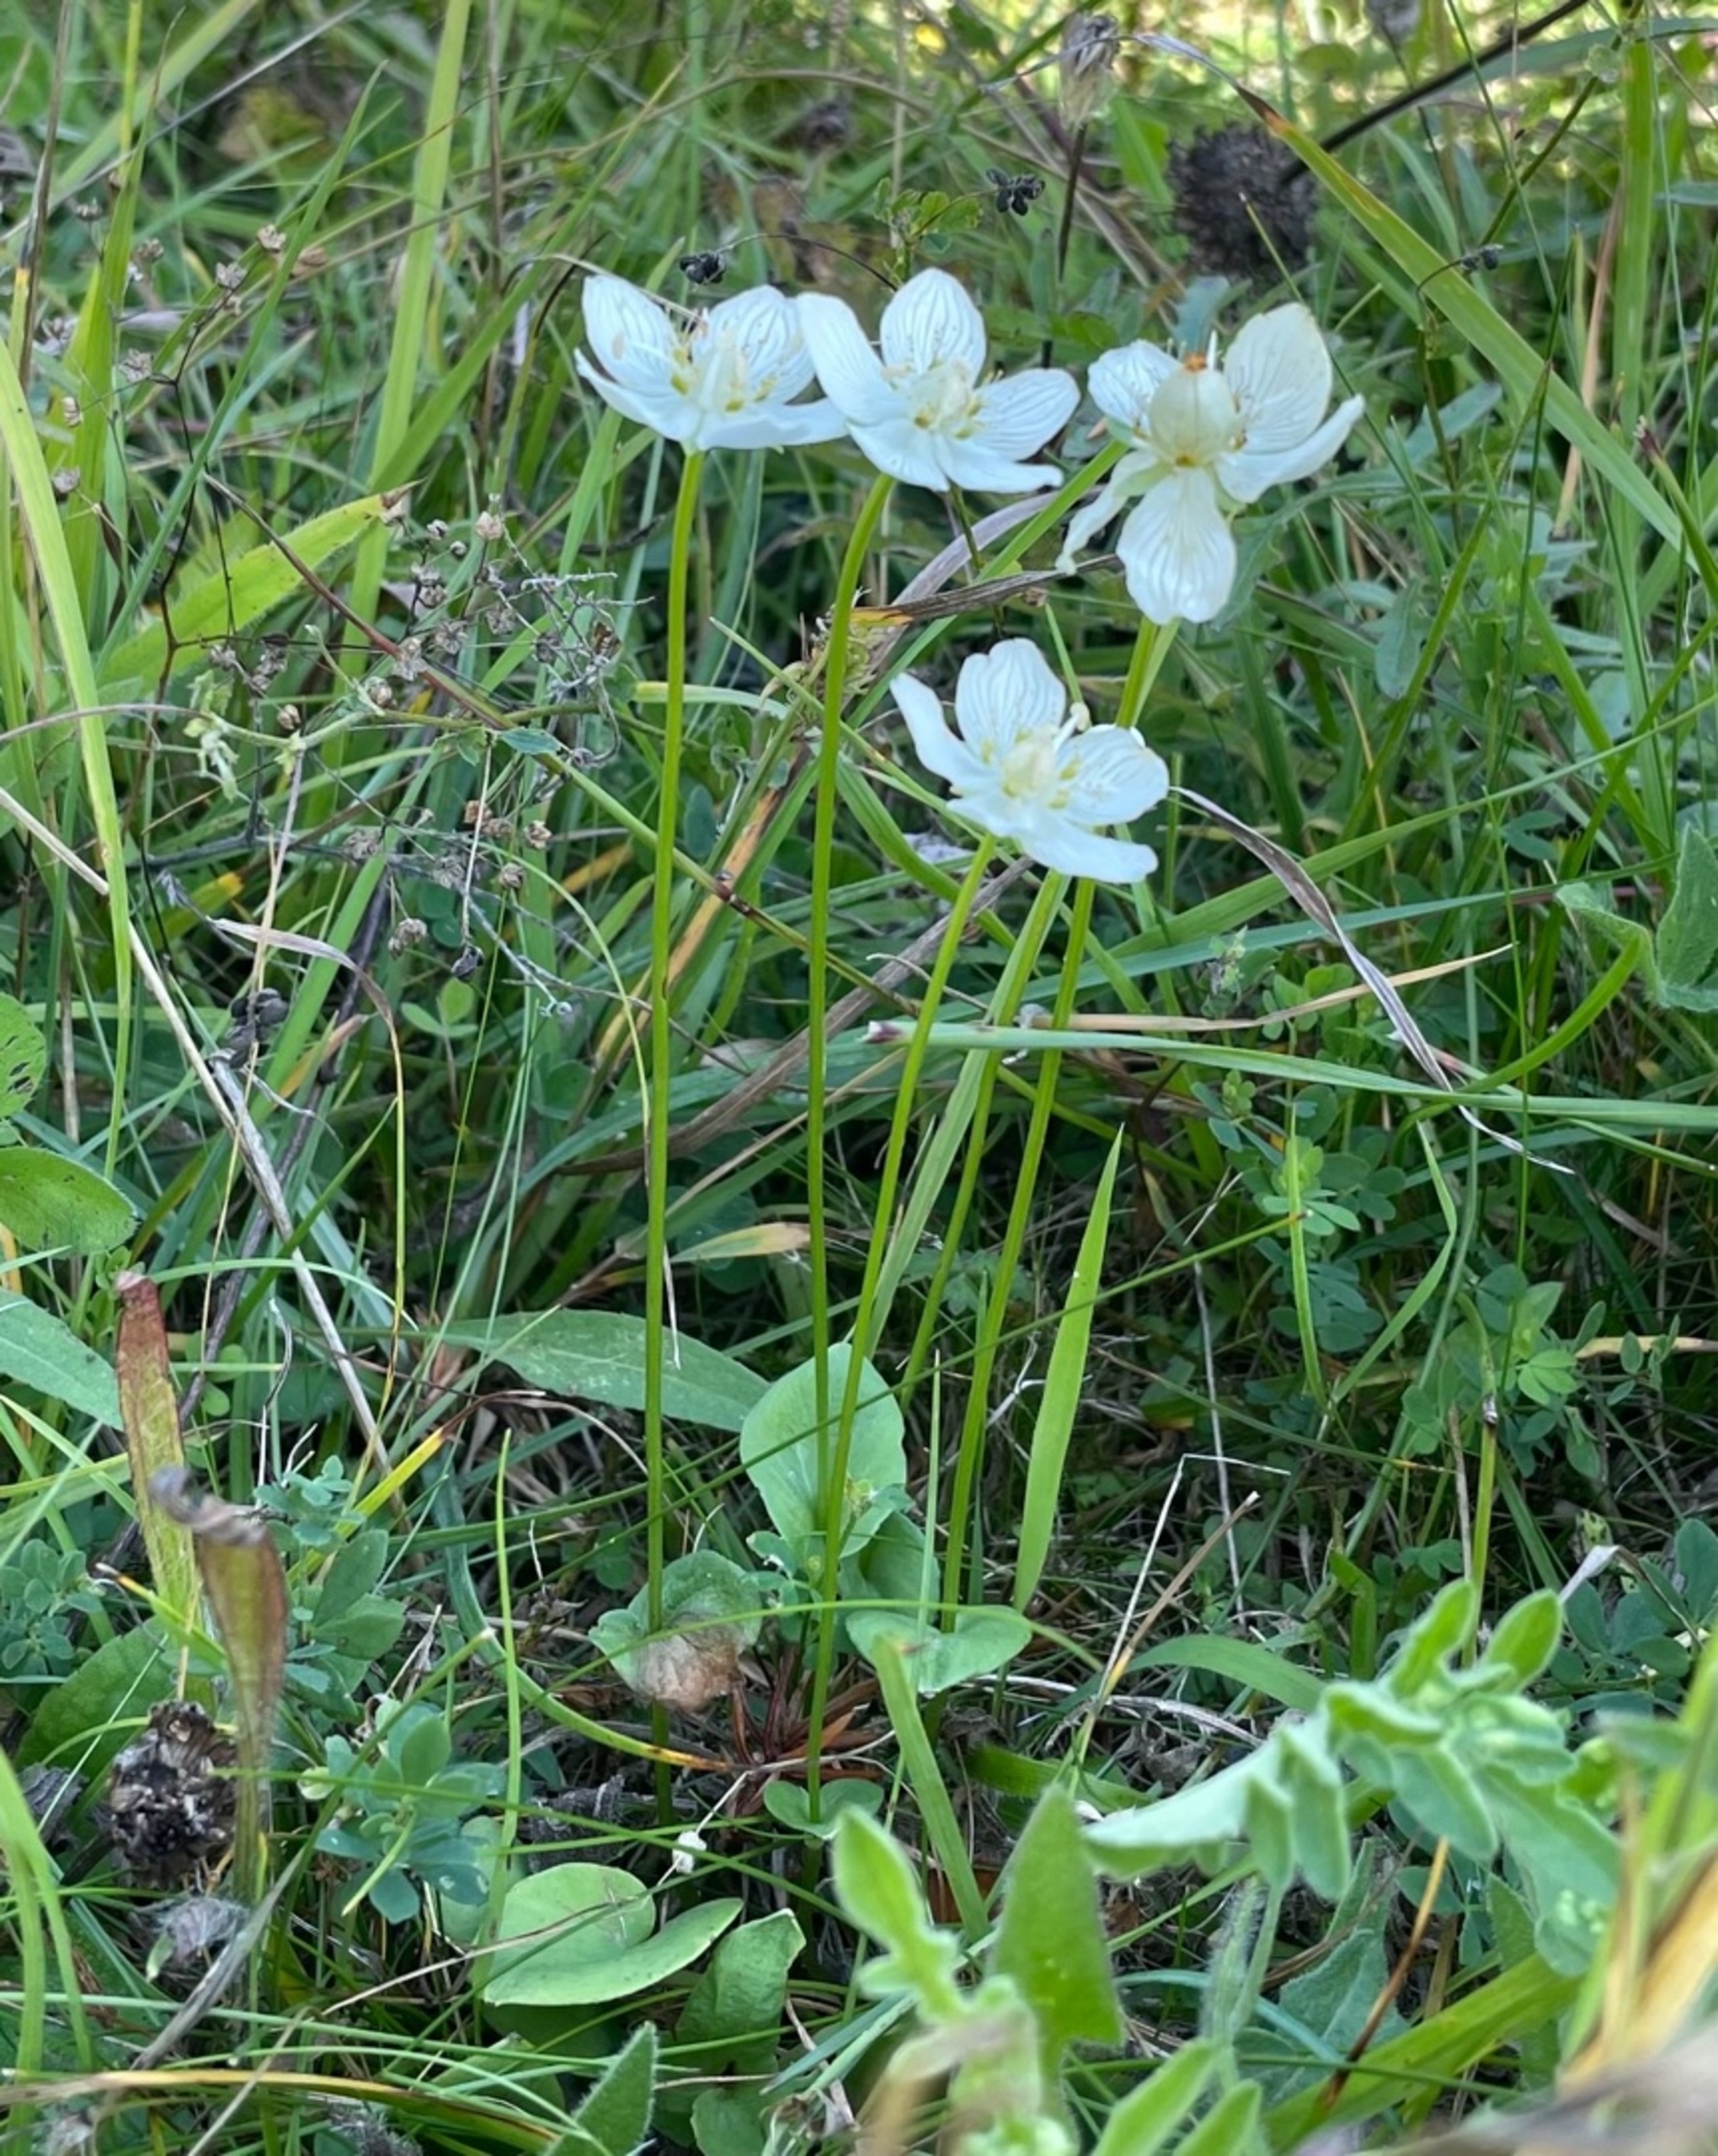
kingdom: Plantae
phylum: Tracheophyta
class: Magnoliopsida
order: Celastrales
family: Parnassiaceae
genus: Parnassia
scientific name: Parnassia palustris
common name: Leverurt
